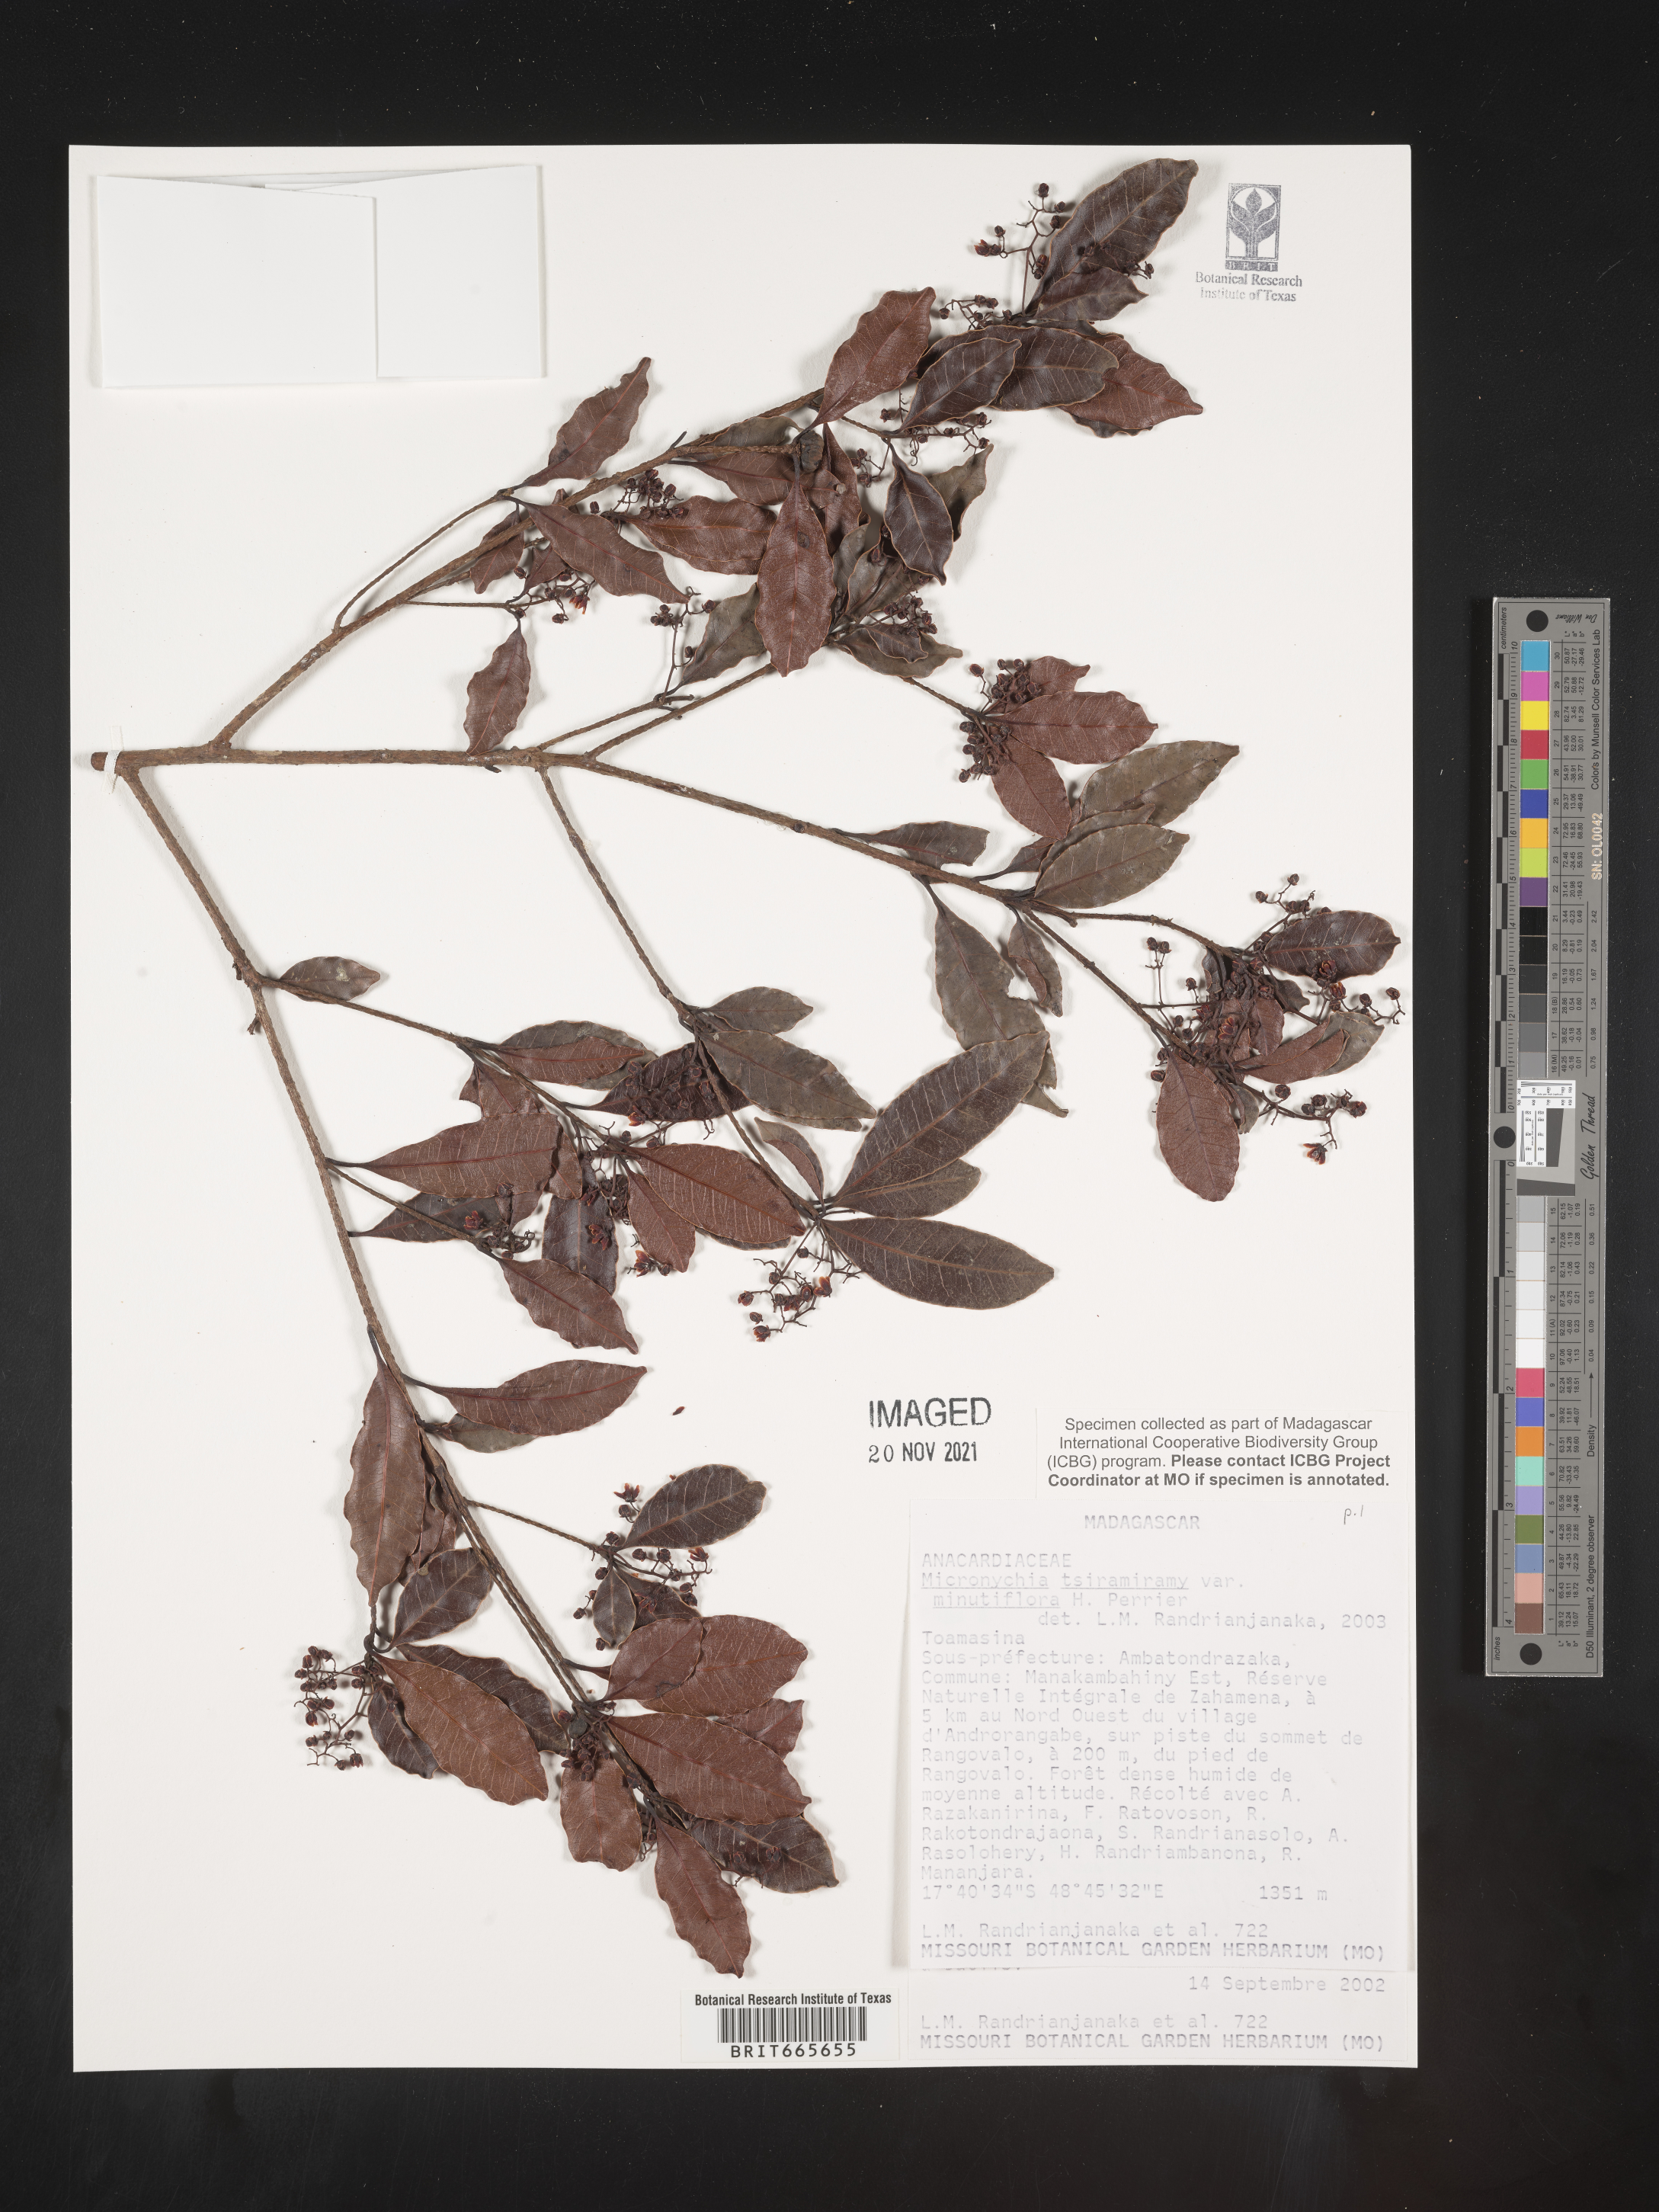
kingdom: Plantae
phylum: Tracheophyta
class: Magnoliopsida
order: Sapindales
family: Anacardiaceae
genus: Micronychia
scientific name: Micronychia
